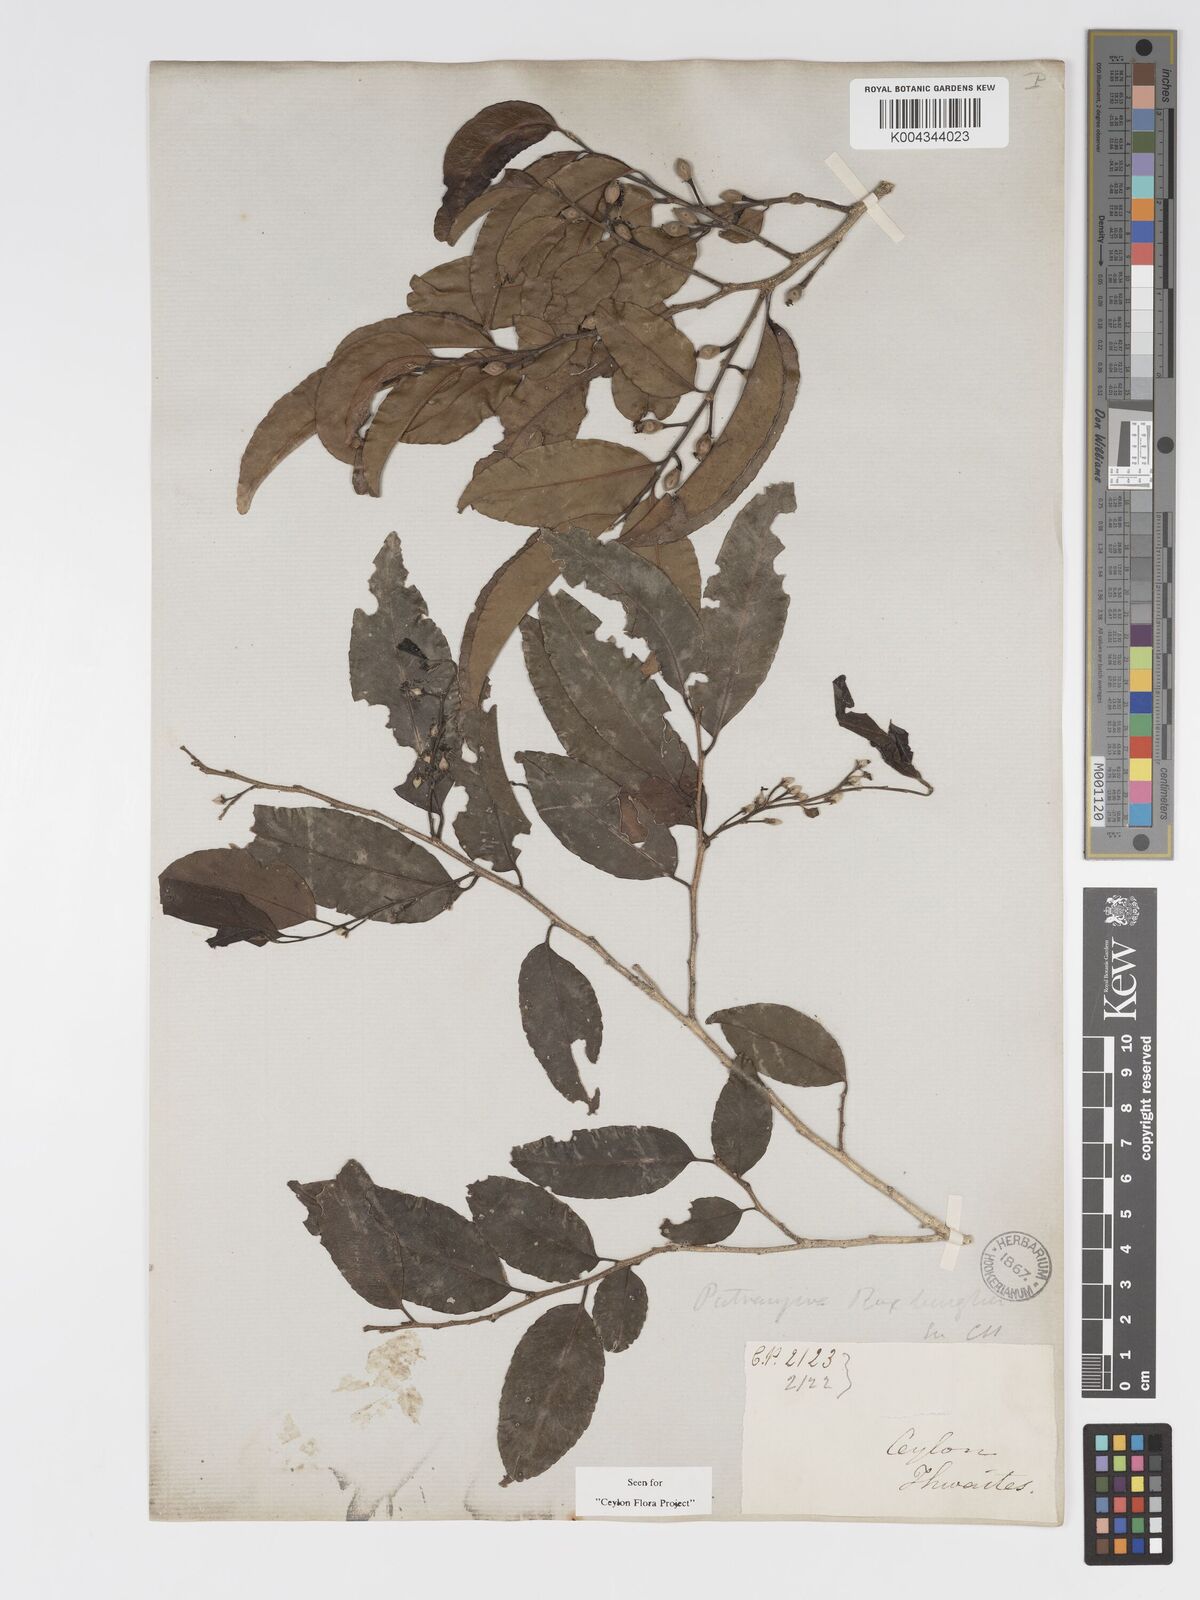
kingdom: Plantae
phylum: Tracheophyta
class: Magnoliopsida
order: Malpighiales
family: Putranjivaceae
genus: Putranjiva
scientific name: Putranjiva roxburghii
